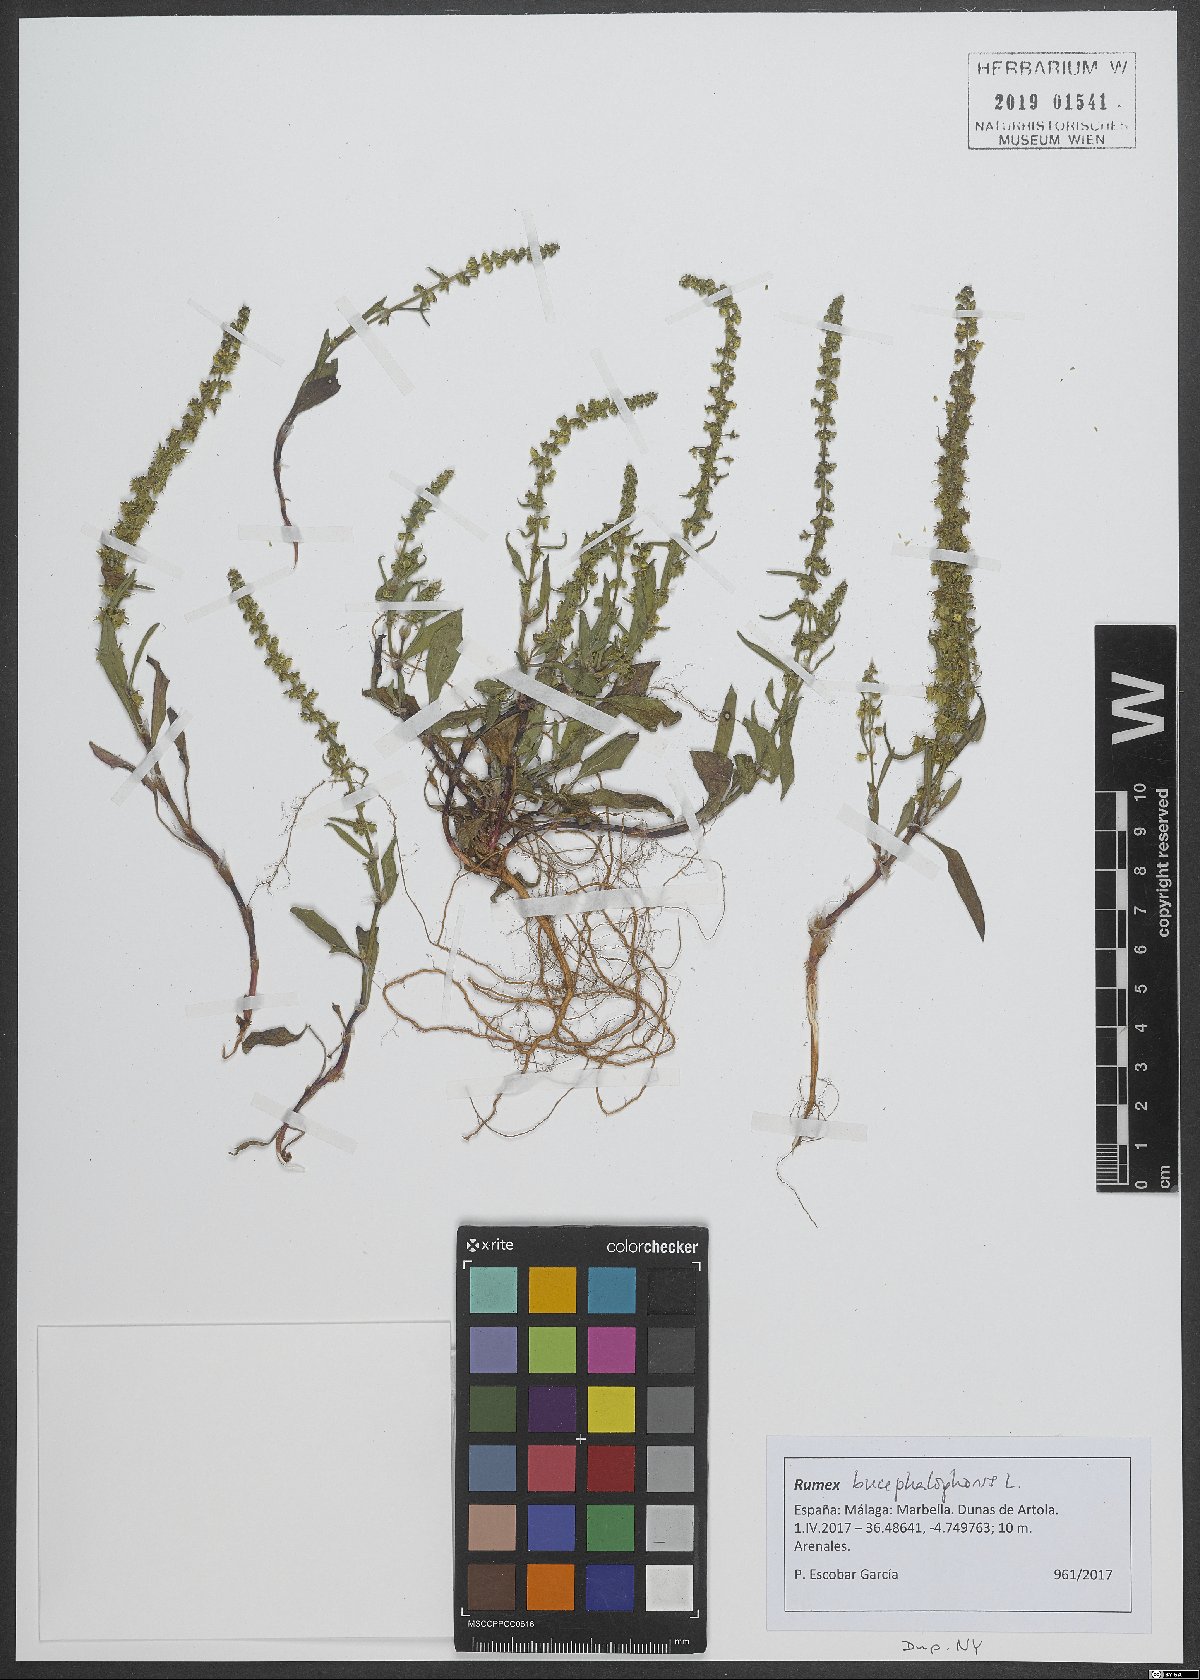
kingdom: Plantae
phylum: Tracheophyta
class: Magnoliopsida
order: Caryophyllales
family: Polygonaceae
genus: Rumex
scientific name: Rumex bucephalophorus
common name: Red dock
